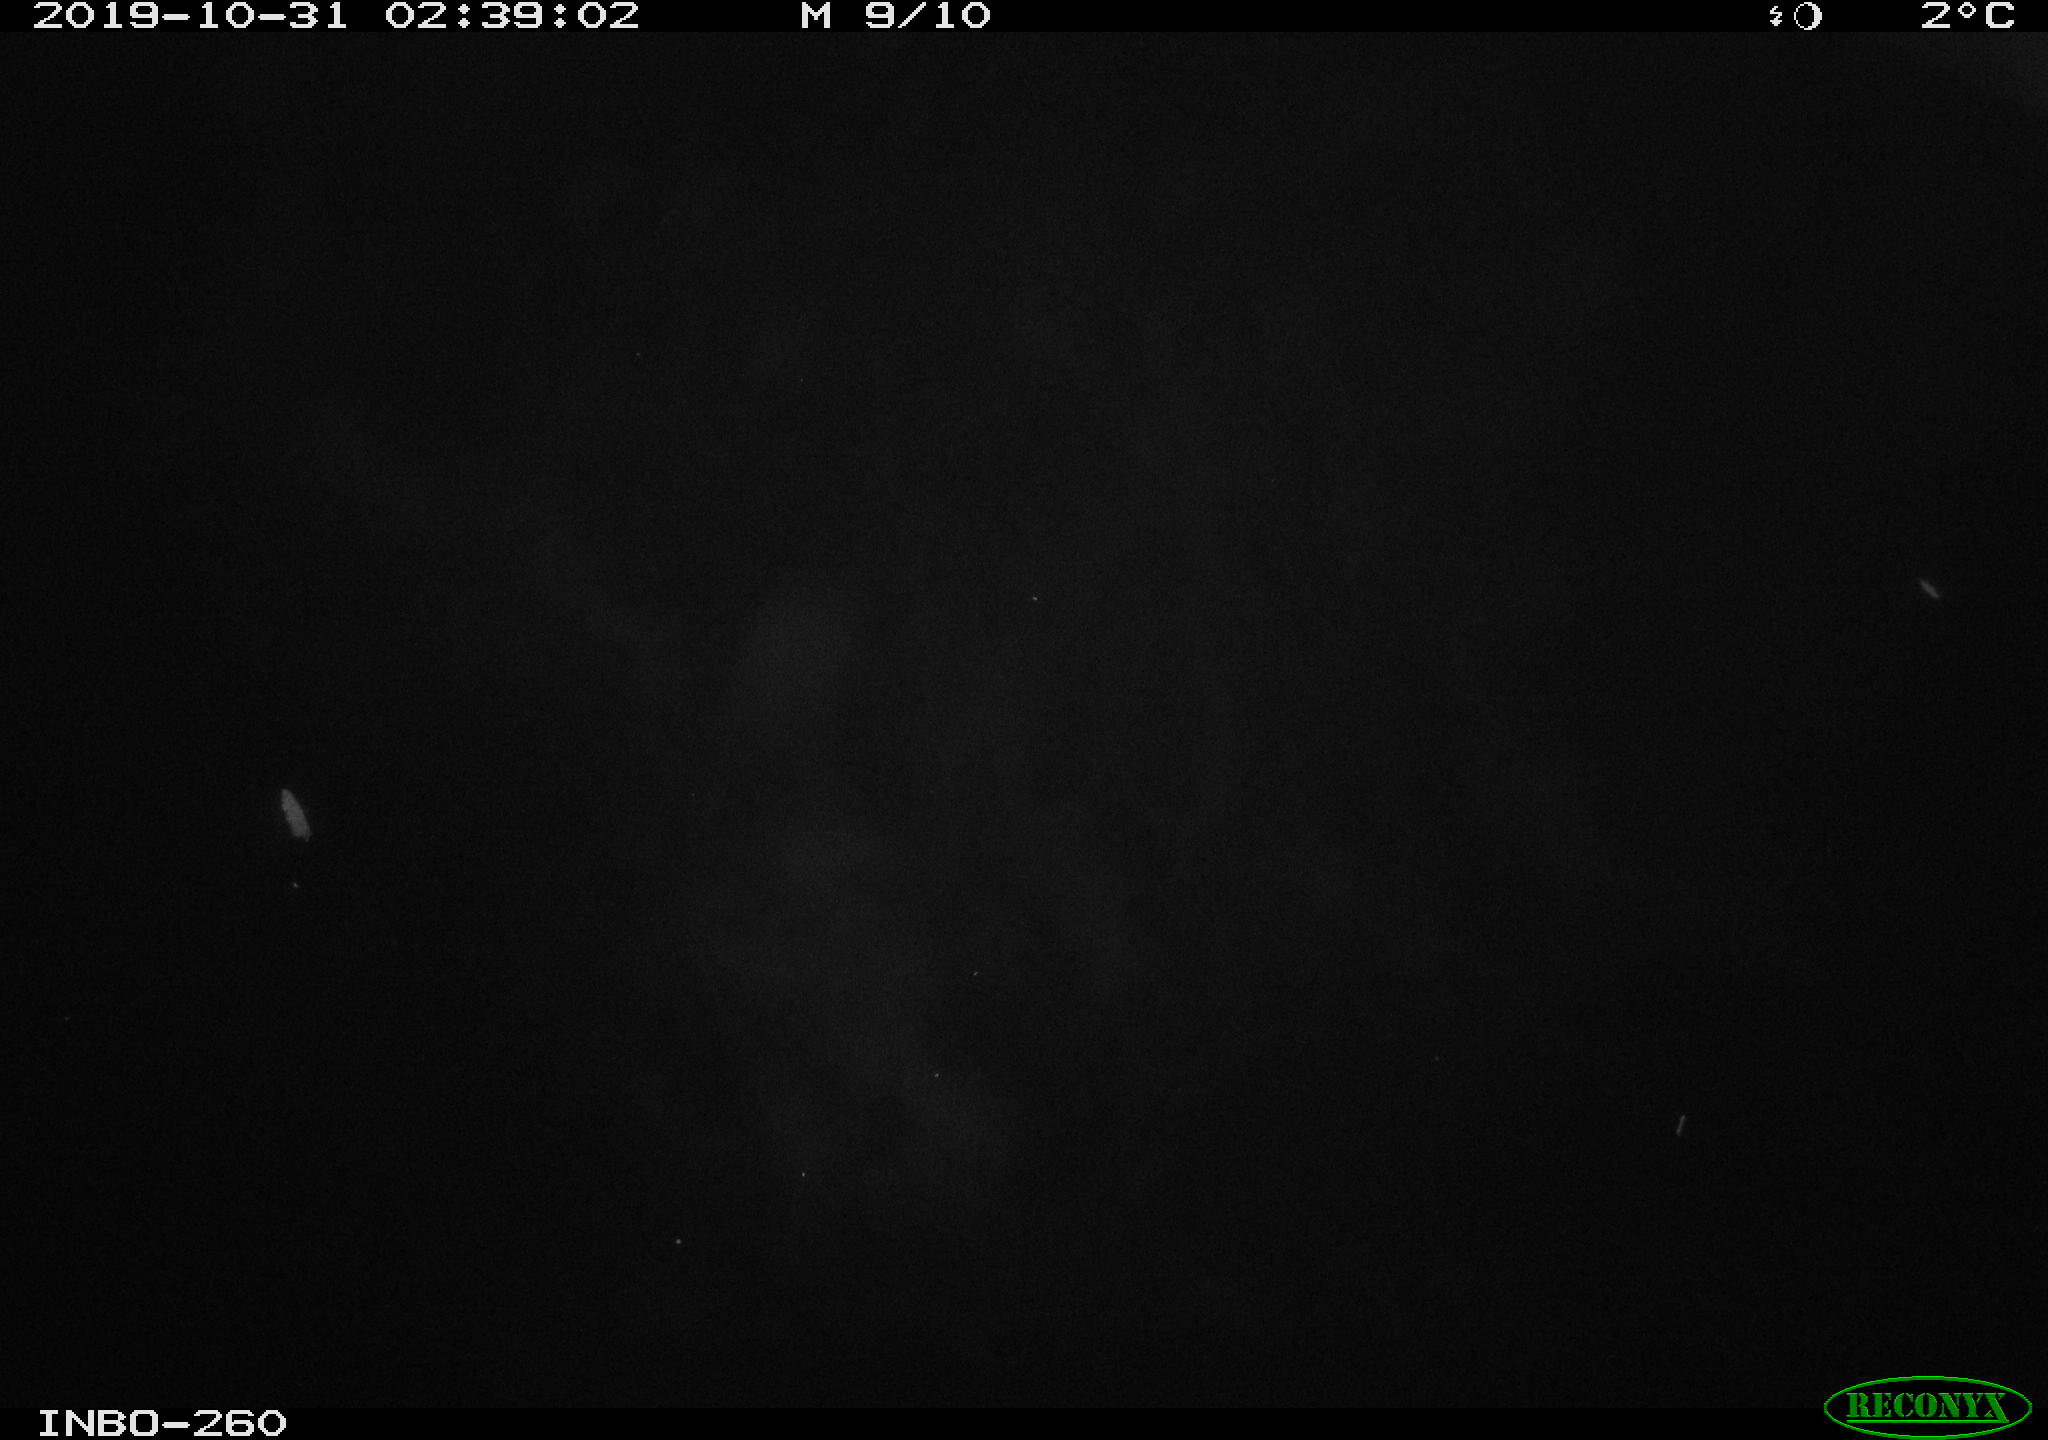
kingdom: Animalia
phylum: Chordata
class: Aves
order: Anseriformes
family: Anatidae
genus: Anas
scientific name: Anas platyrhynchos
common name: Mallard
